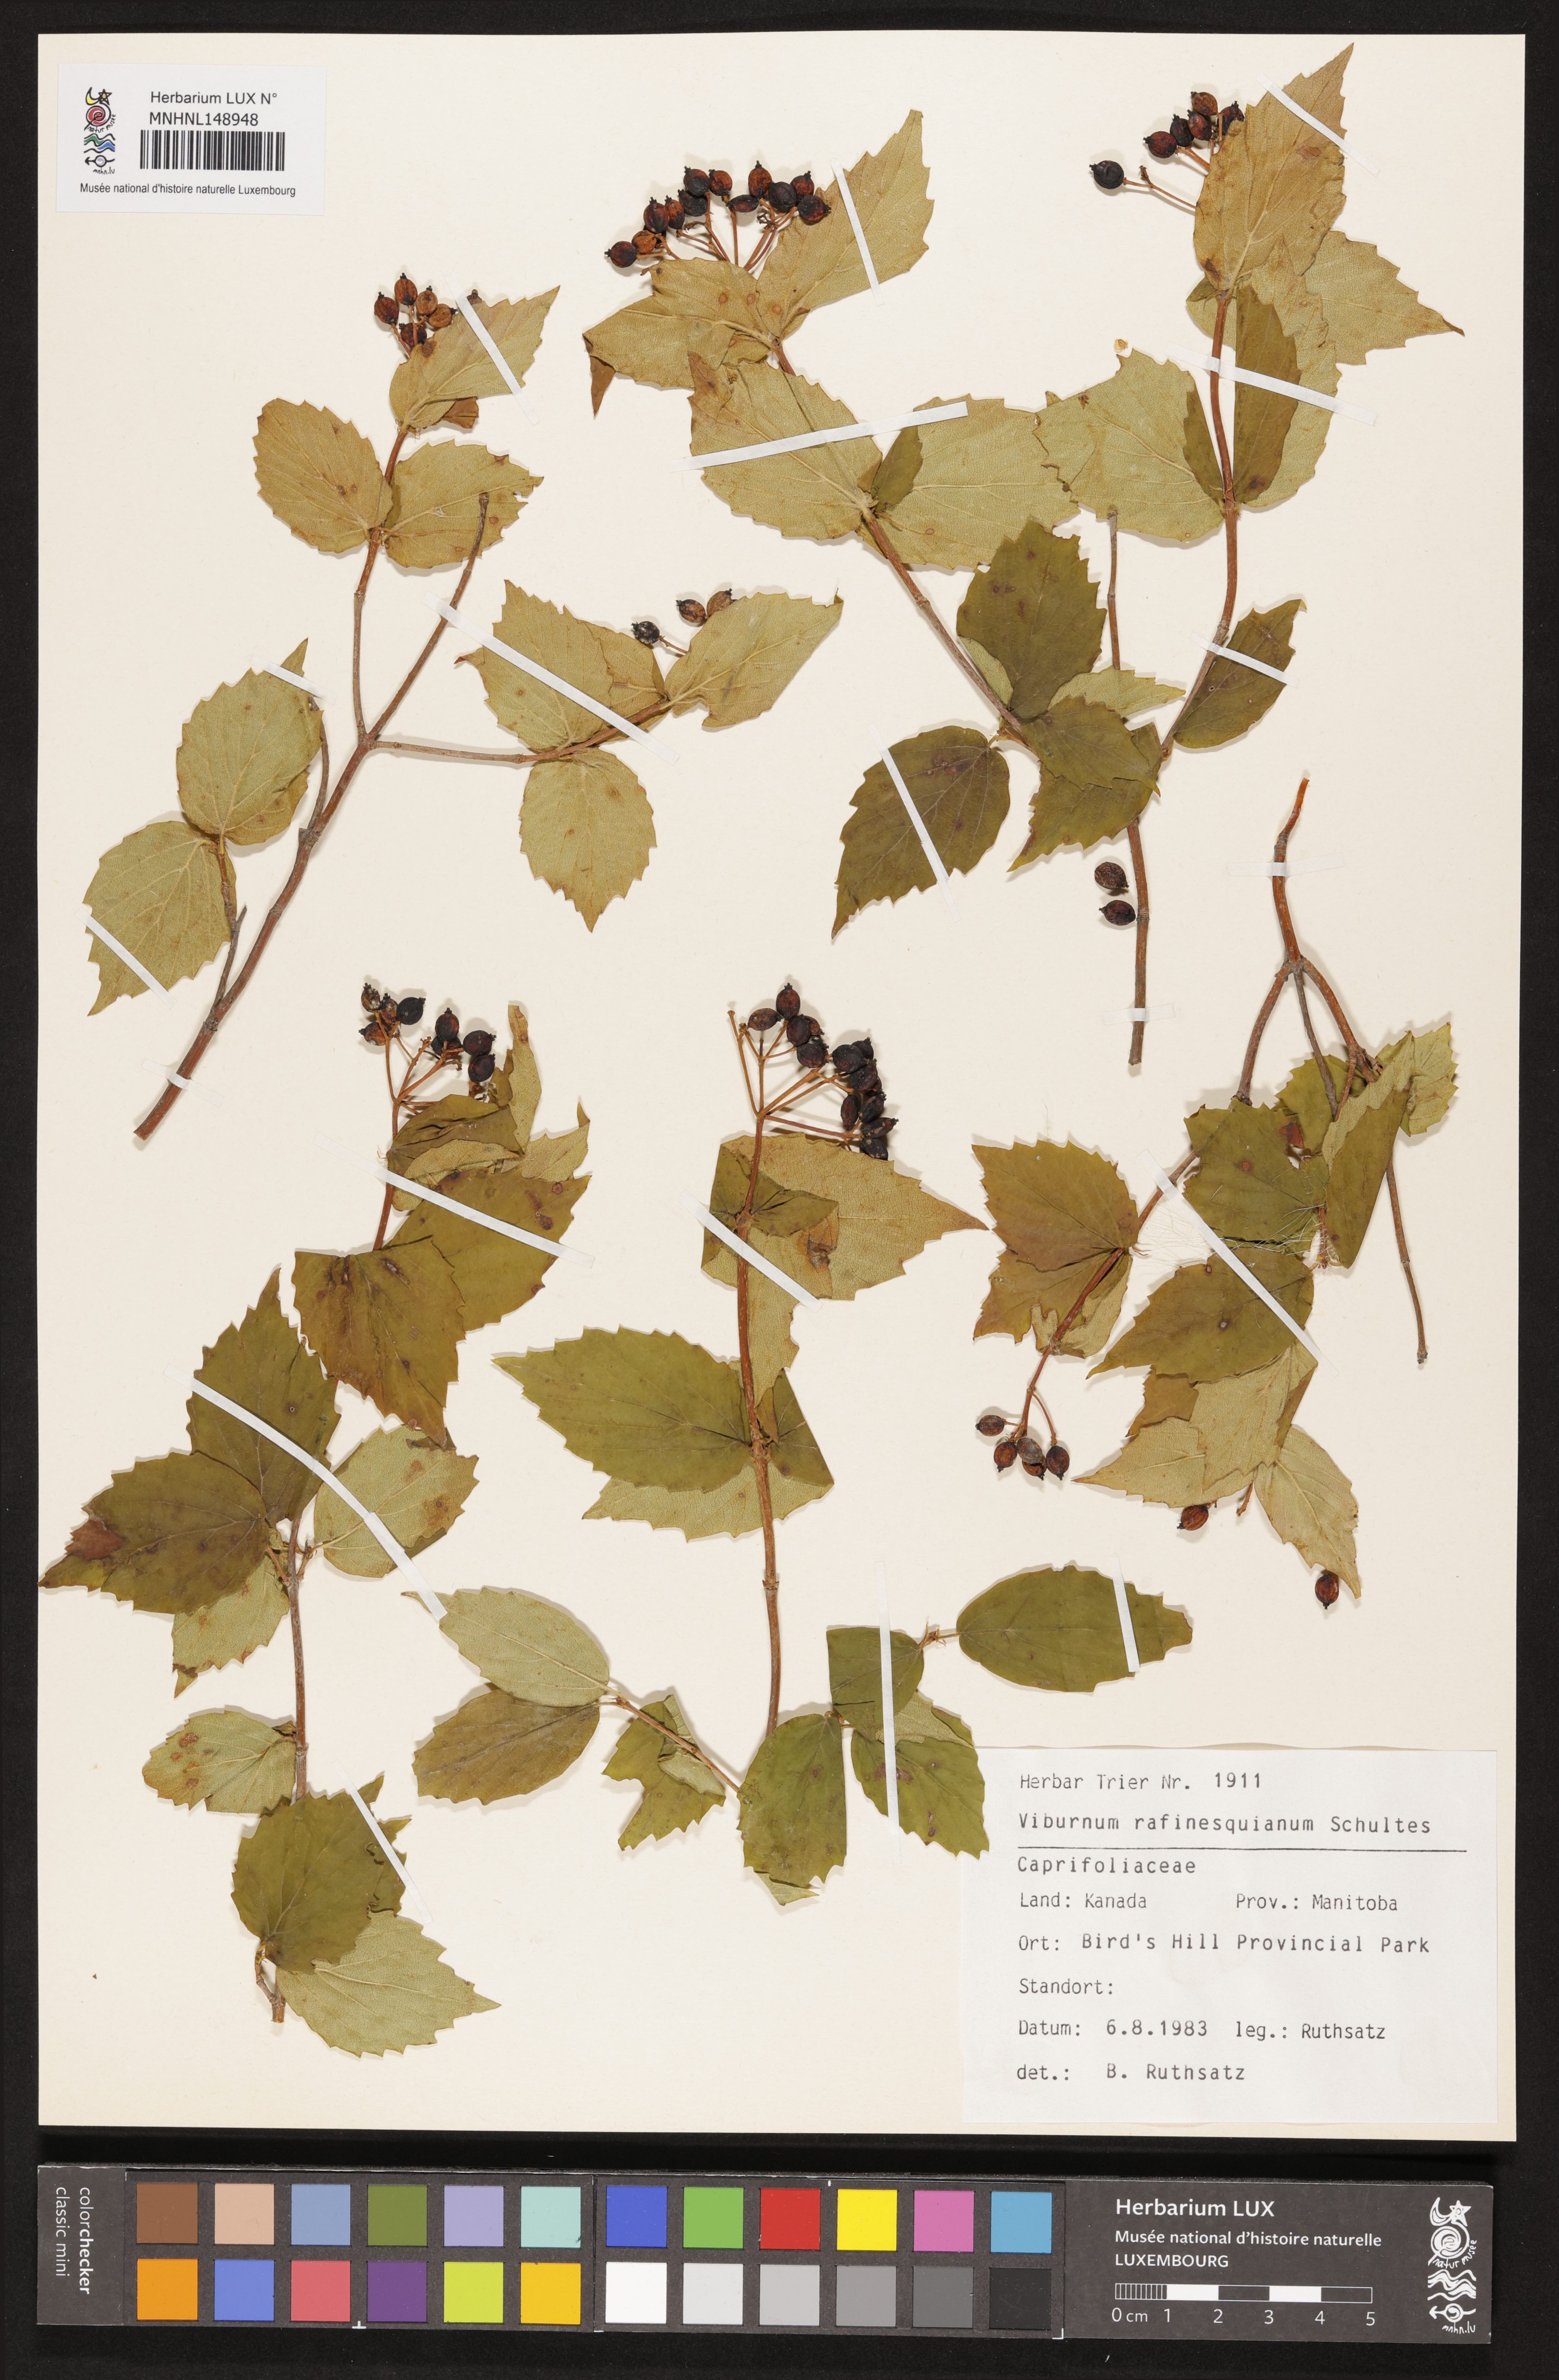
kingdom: Plantae
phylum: Tracheophyta
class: Magnoliopsida
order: Dipsacales
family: Viburnaceae
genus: Viburnum
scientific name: Viburnum rafinesqueanum
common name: Downy arrow-wood
